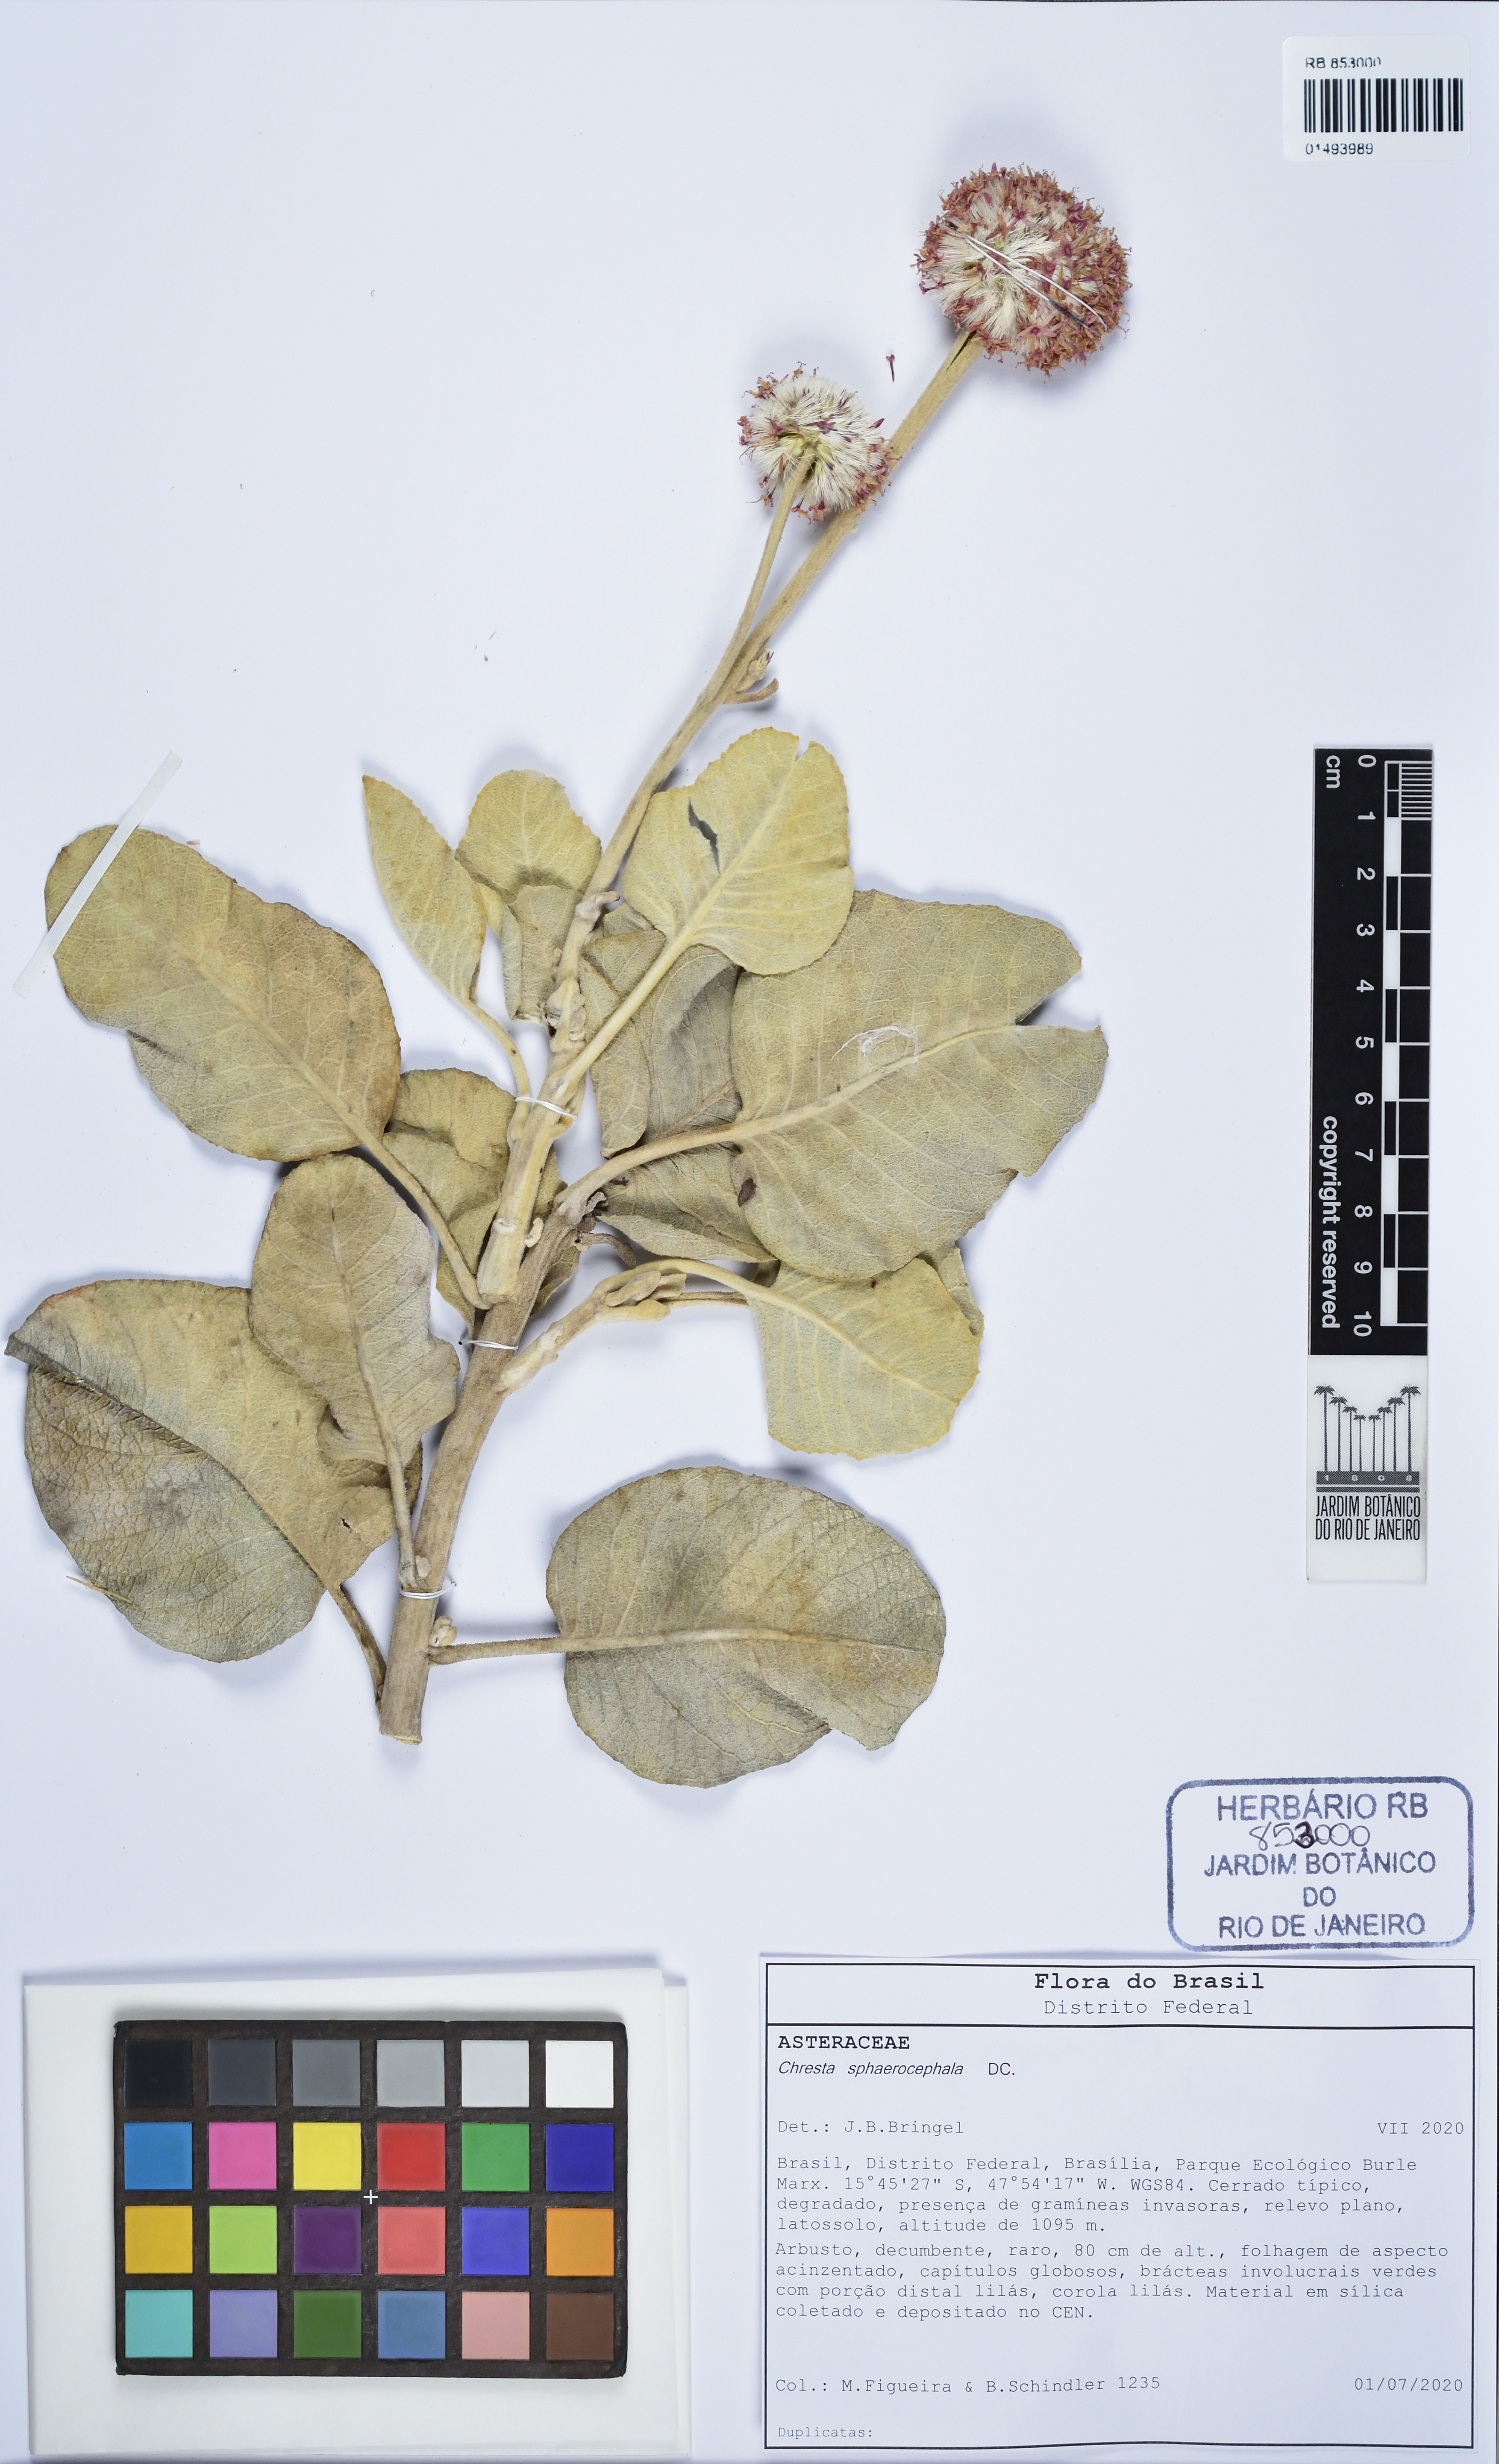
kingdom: Plantae
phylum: Tracheophyta
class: Magnoliopsida
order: Asterales
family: Asteraceae
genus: Chresta
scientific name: Chresta sphaerocephala
